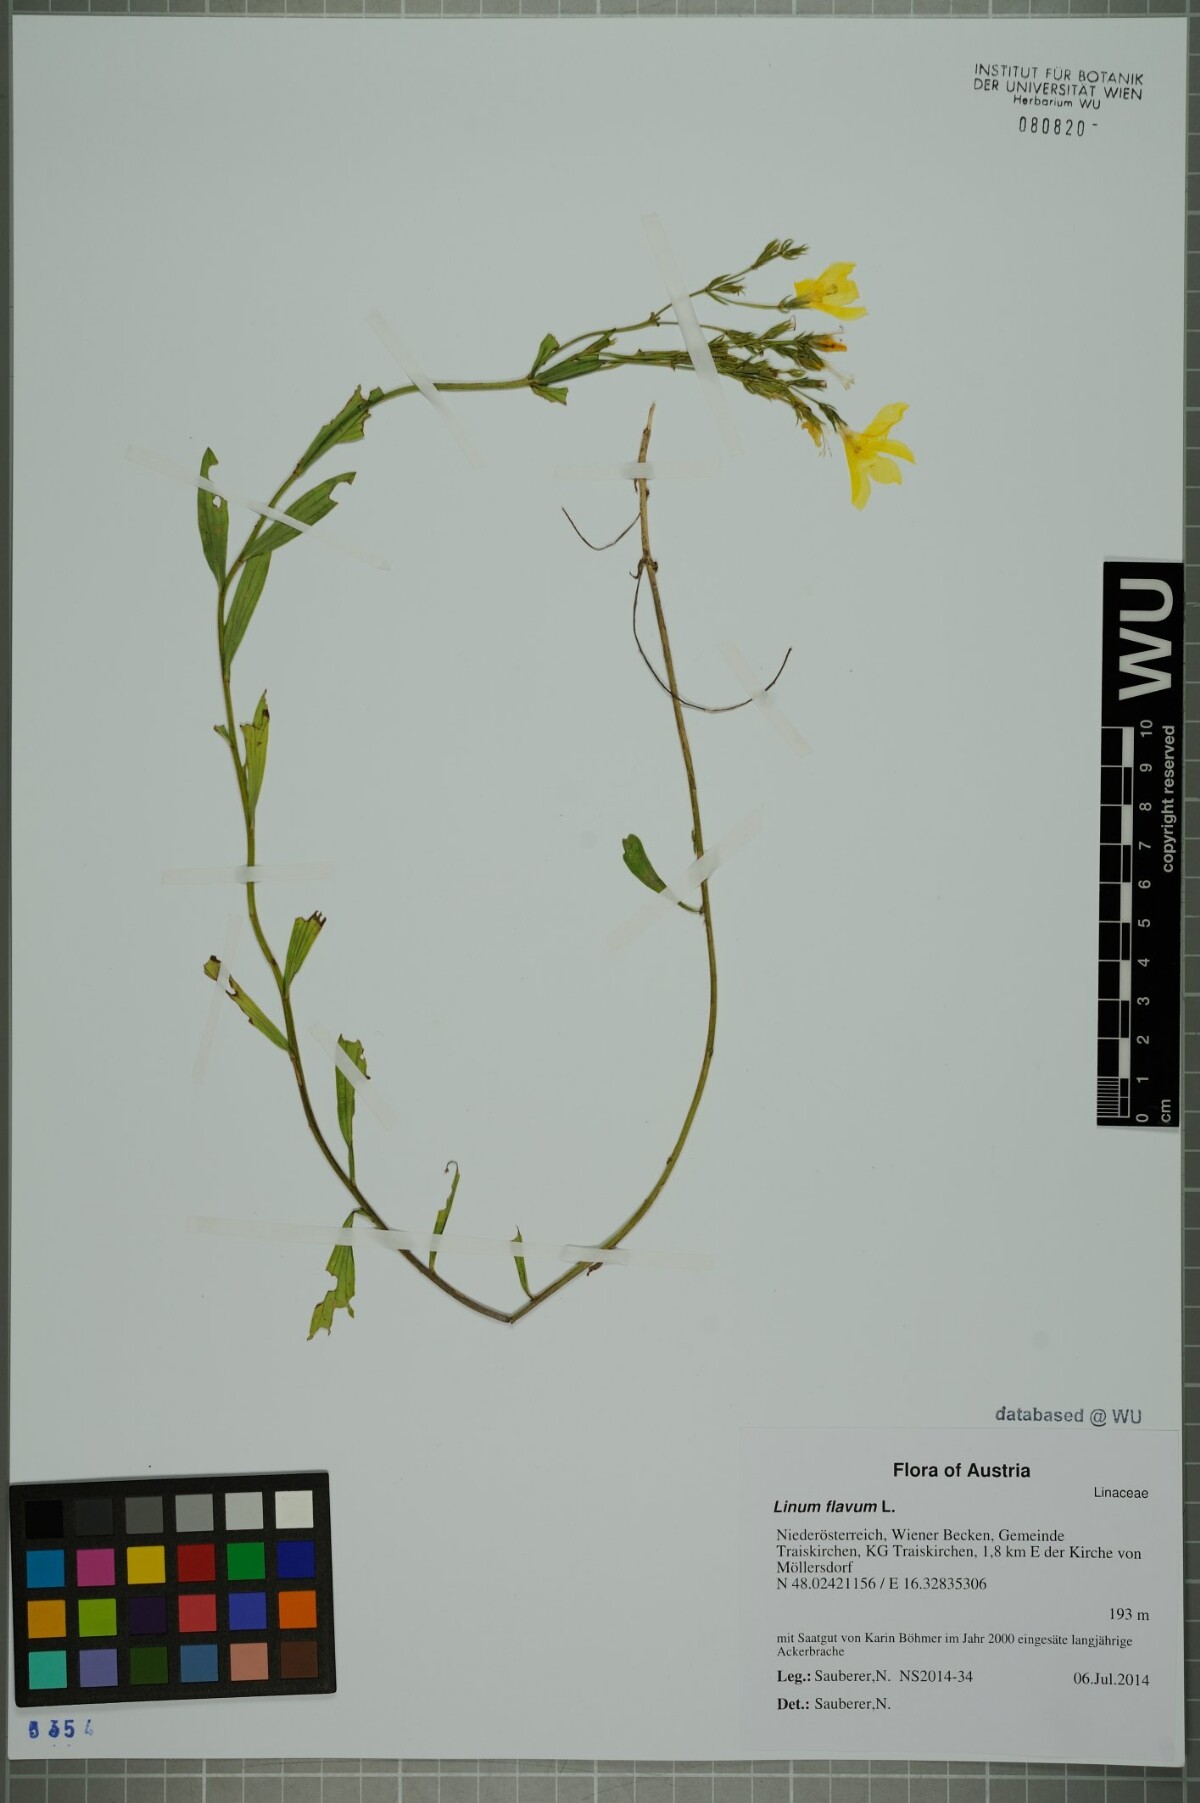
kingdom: Plantae
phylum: Tracheophyta
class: Magnoliopsida
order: Malpighiales
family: Linaceae
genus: Linum
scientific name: Linum flavum
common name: Yellow flax
